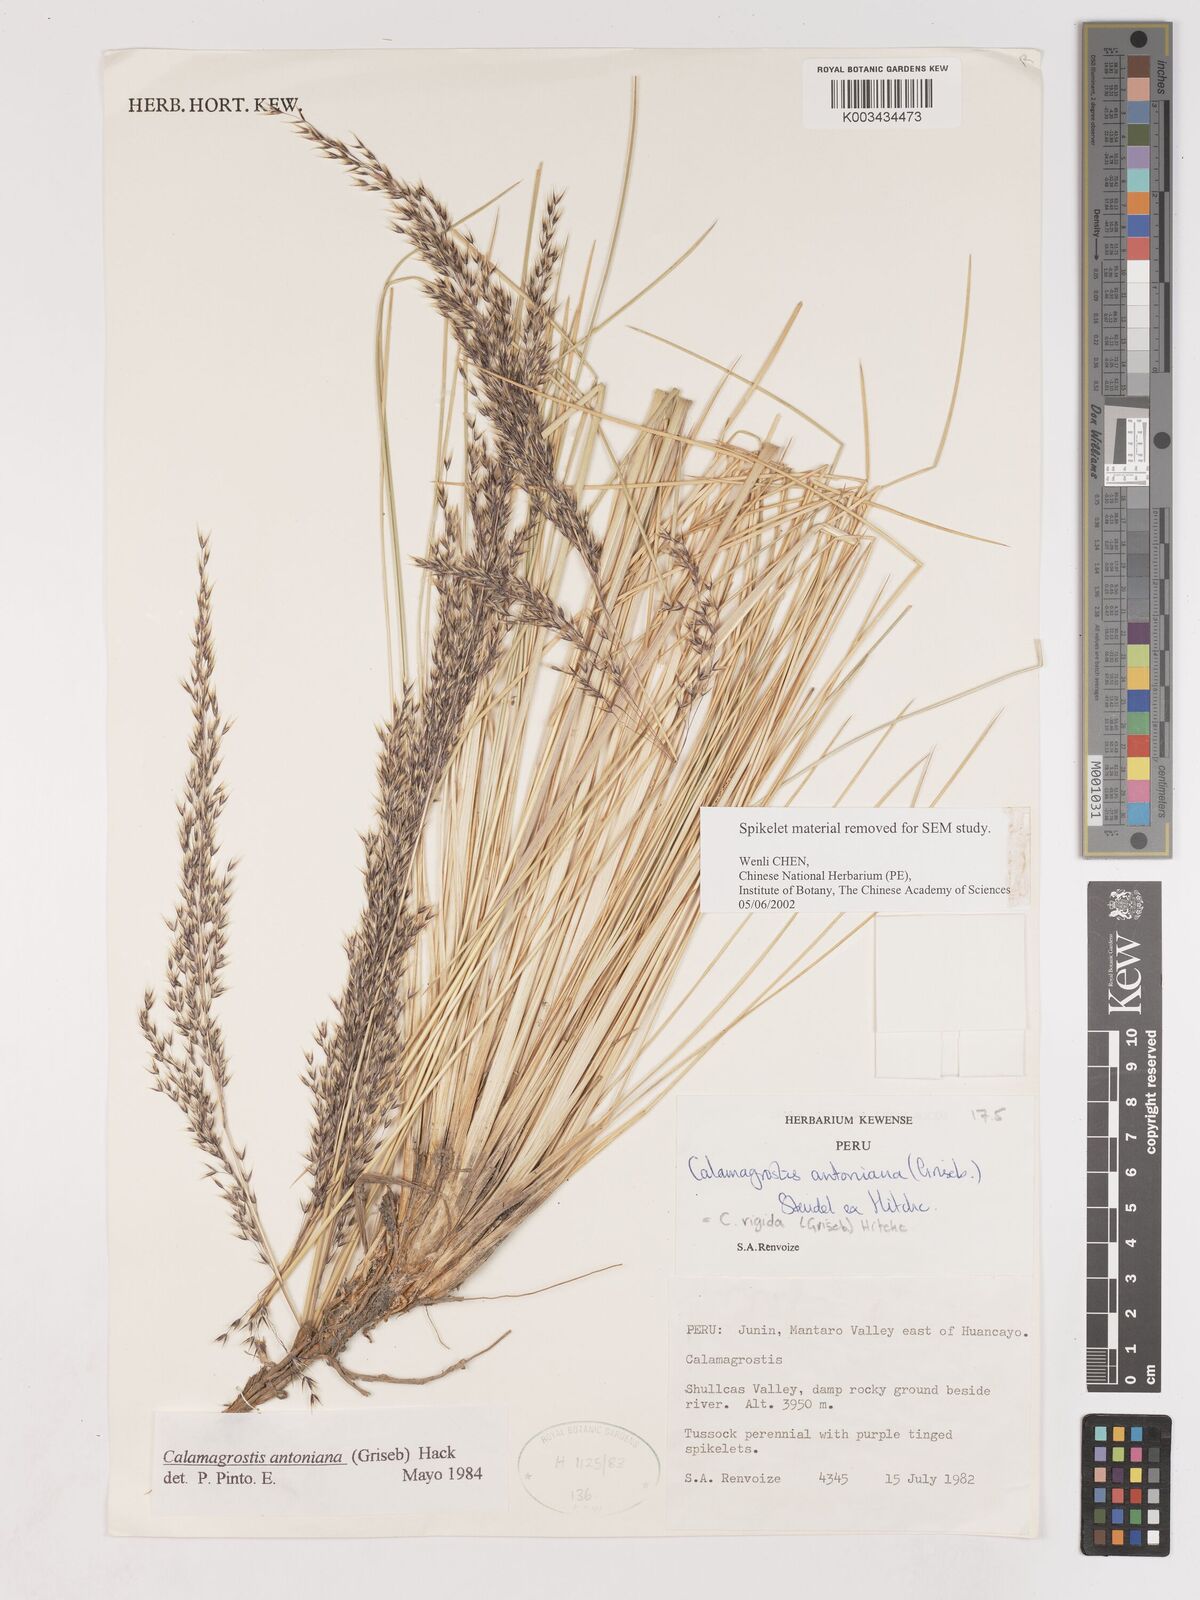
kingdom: Plantae
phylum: Tracheophyta
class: Liliopsida
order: Poales
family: Poaceae
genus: Cinnagrostis
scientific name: Cinnagrostis rigida
